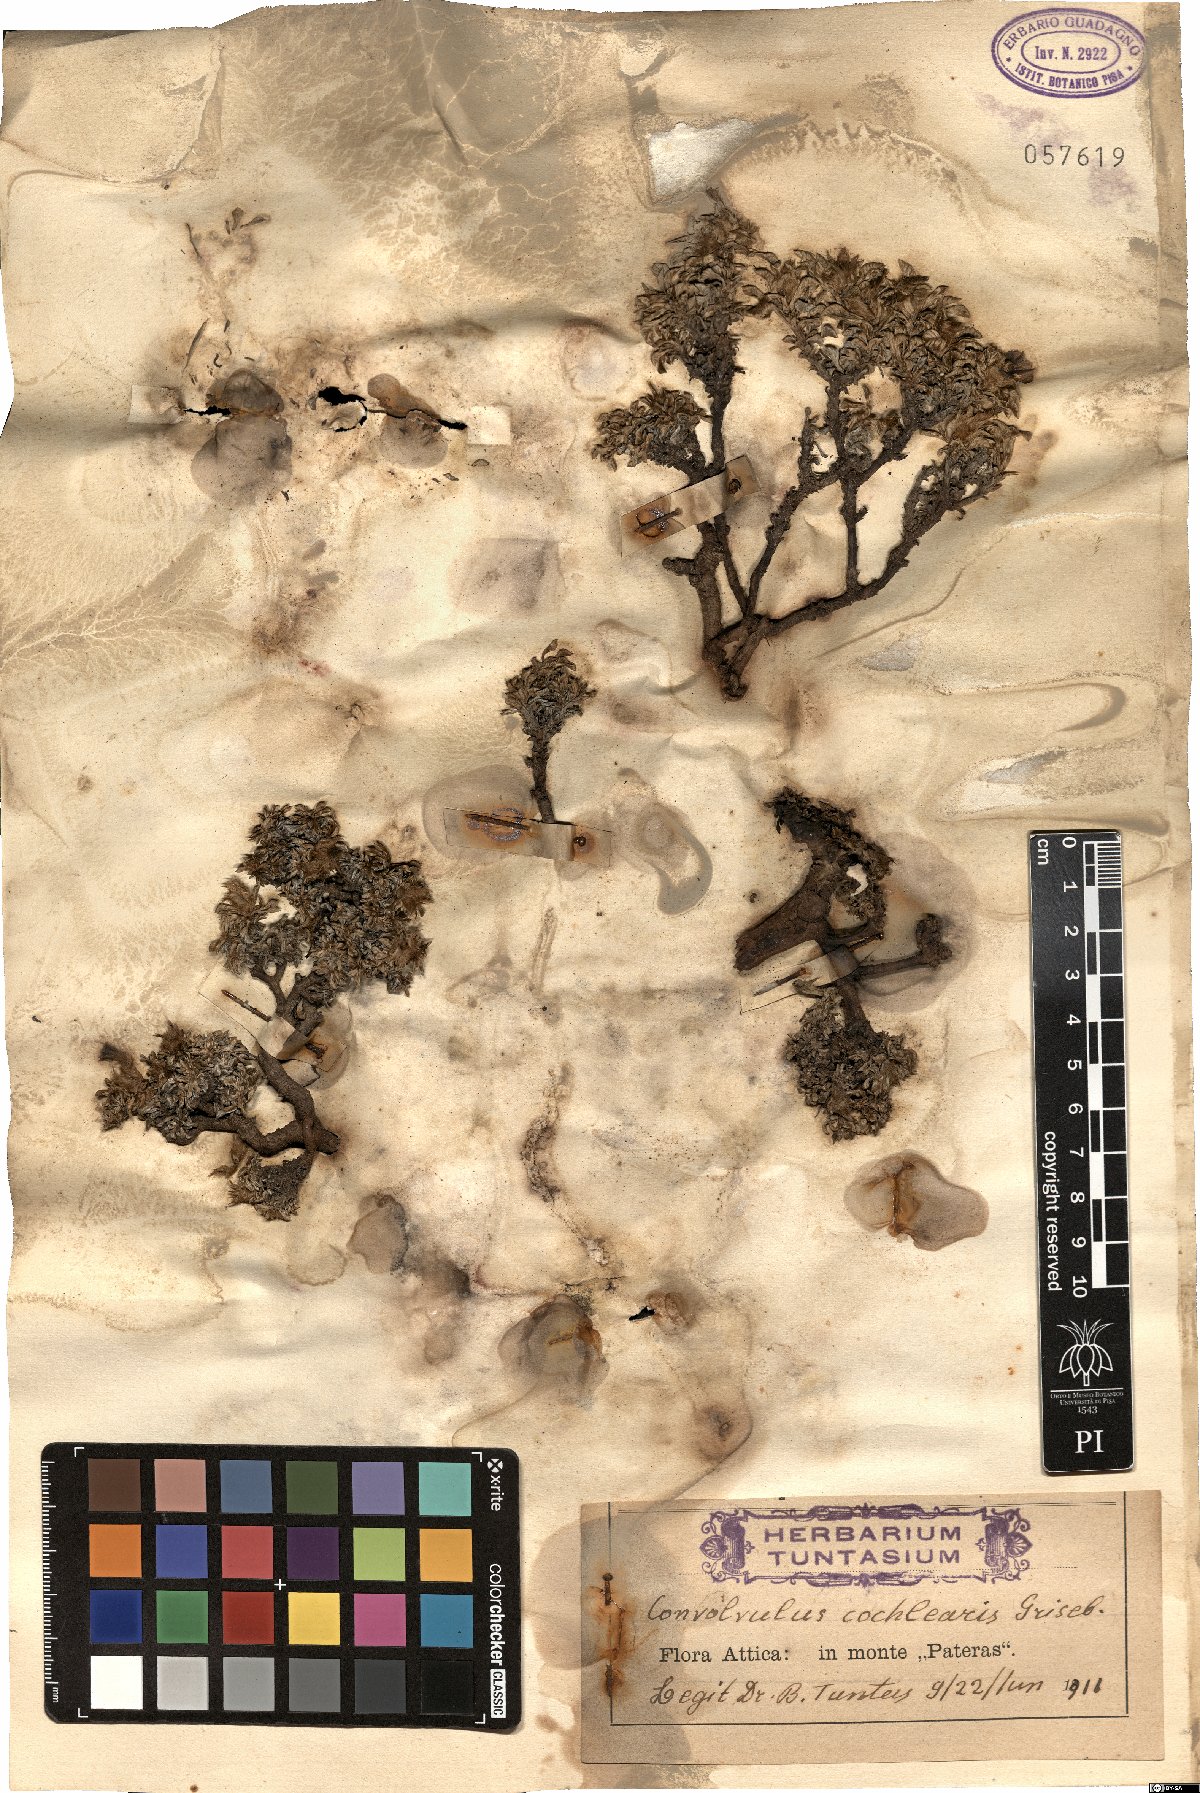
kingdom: Plantae
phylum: Tracheophyta
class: Magnoliopsida
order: Solanales
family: Convolvulaceae
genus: Convolvulus
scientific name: Convolvulus boissieri
